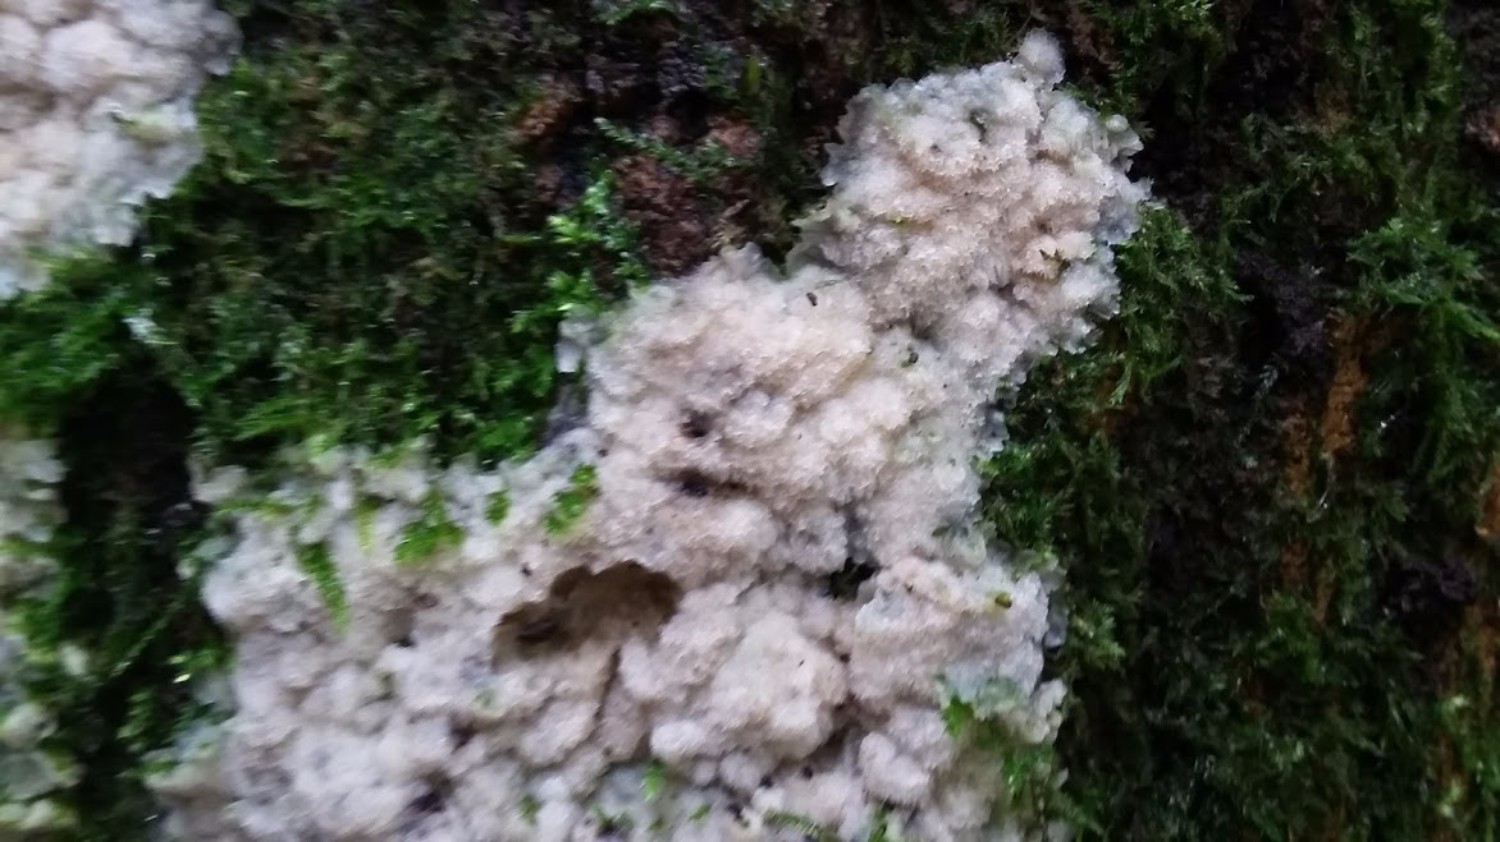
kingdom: Fungi
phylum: Basidiomycota
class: Agaricomycetes
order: Polyporales
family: Meruliaceae
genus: Physisporinus
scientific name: Physisporinus vitreus
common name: mastesvamp
